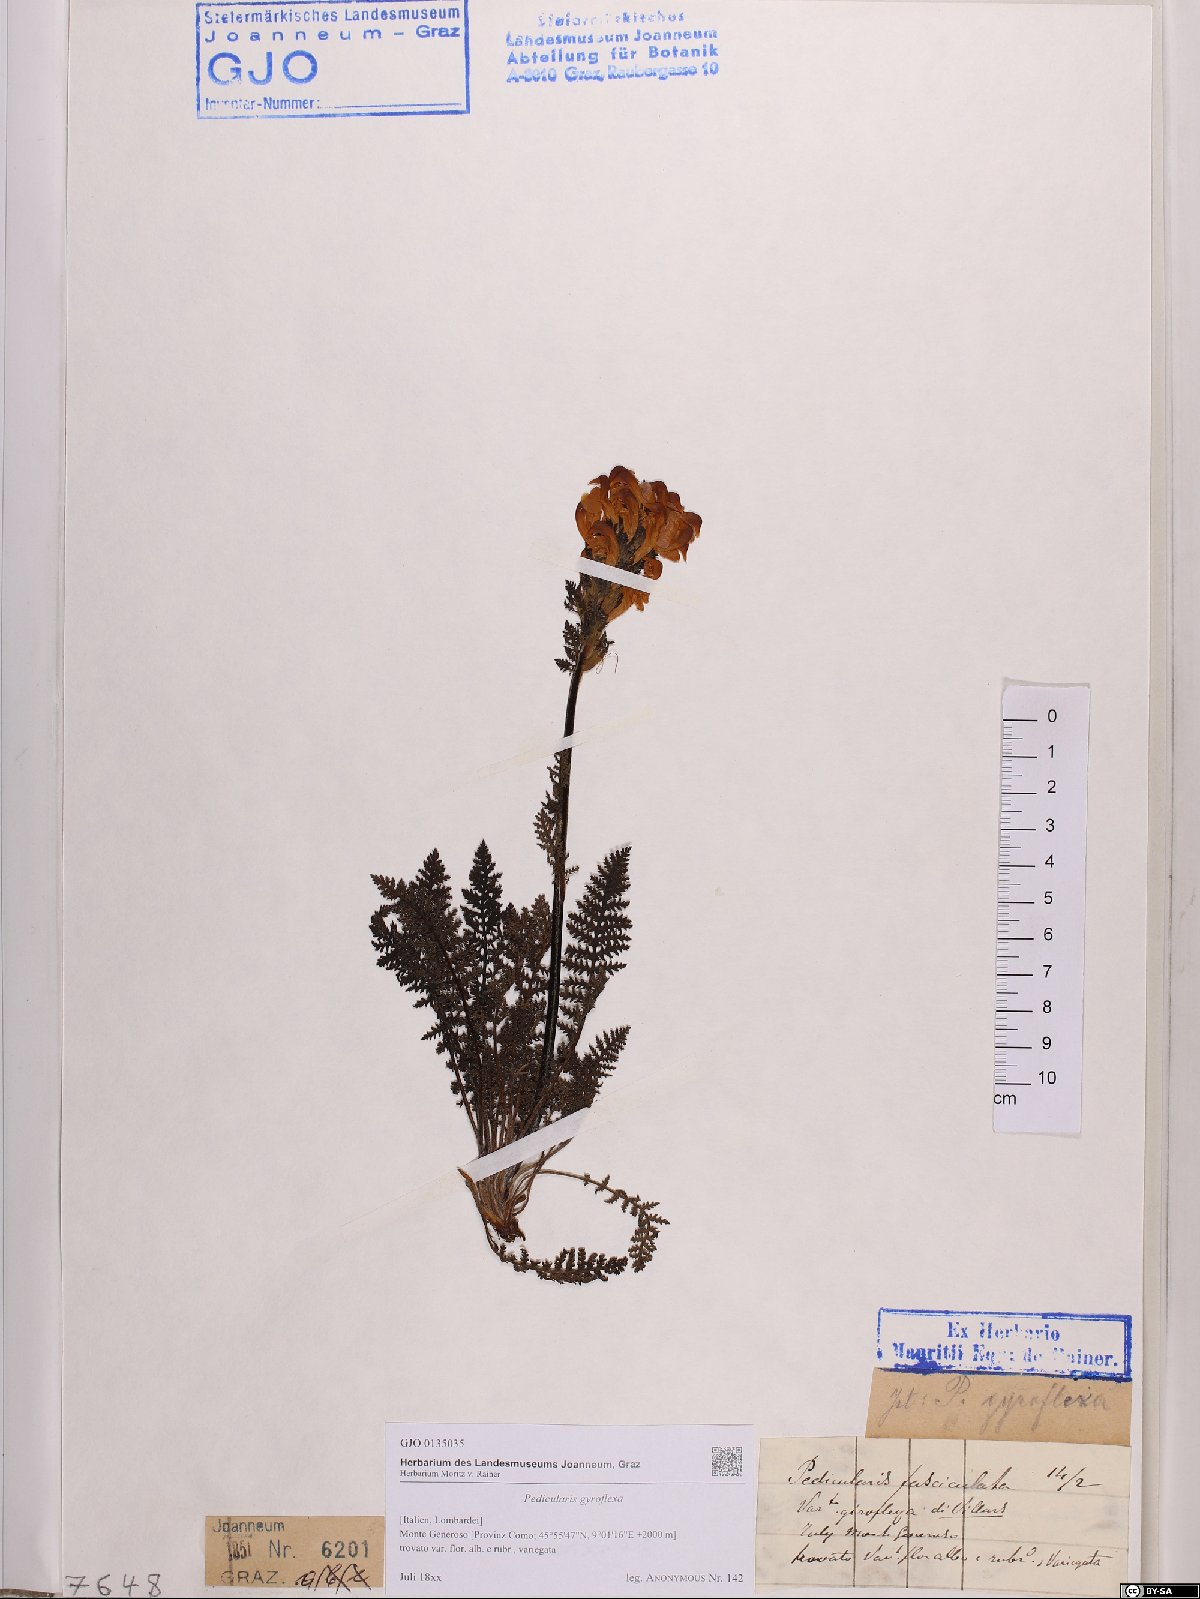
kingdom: Plantae
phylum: Tracheophyta
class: Magnoliopsida
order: Lamiales
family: Orobanchaceae
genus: Pedicularis
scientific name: Pedicularis gyroflexa
